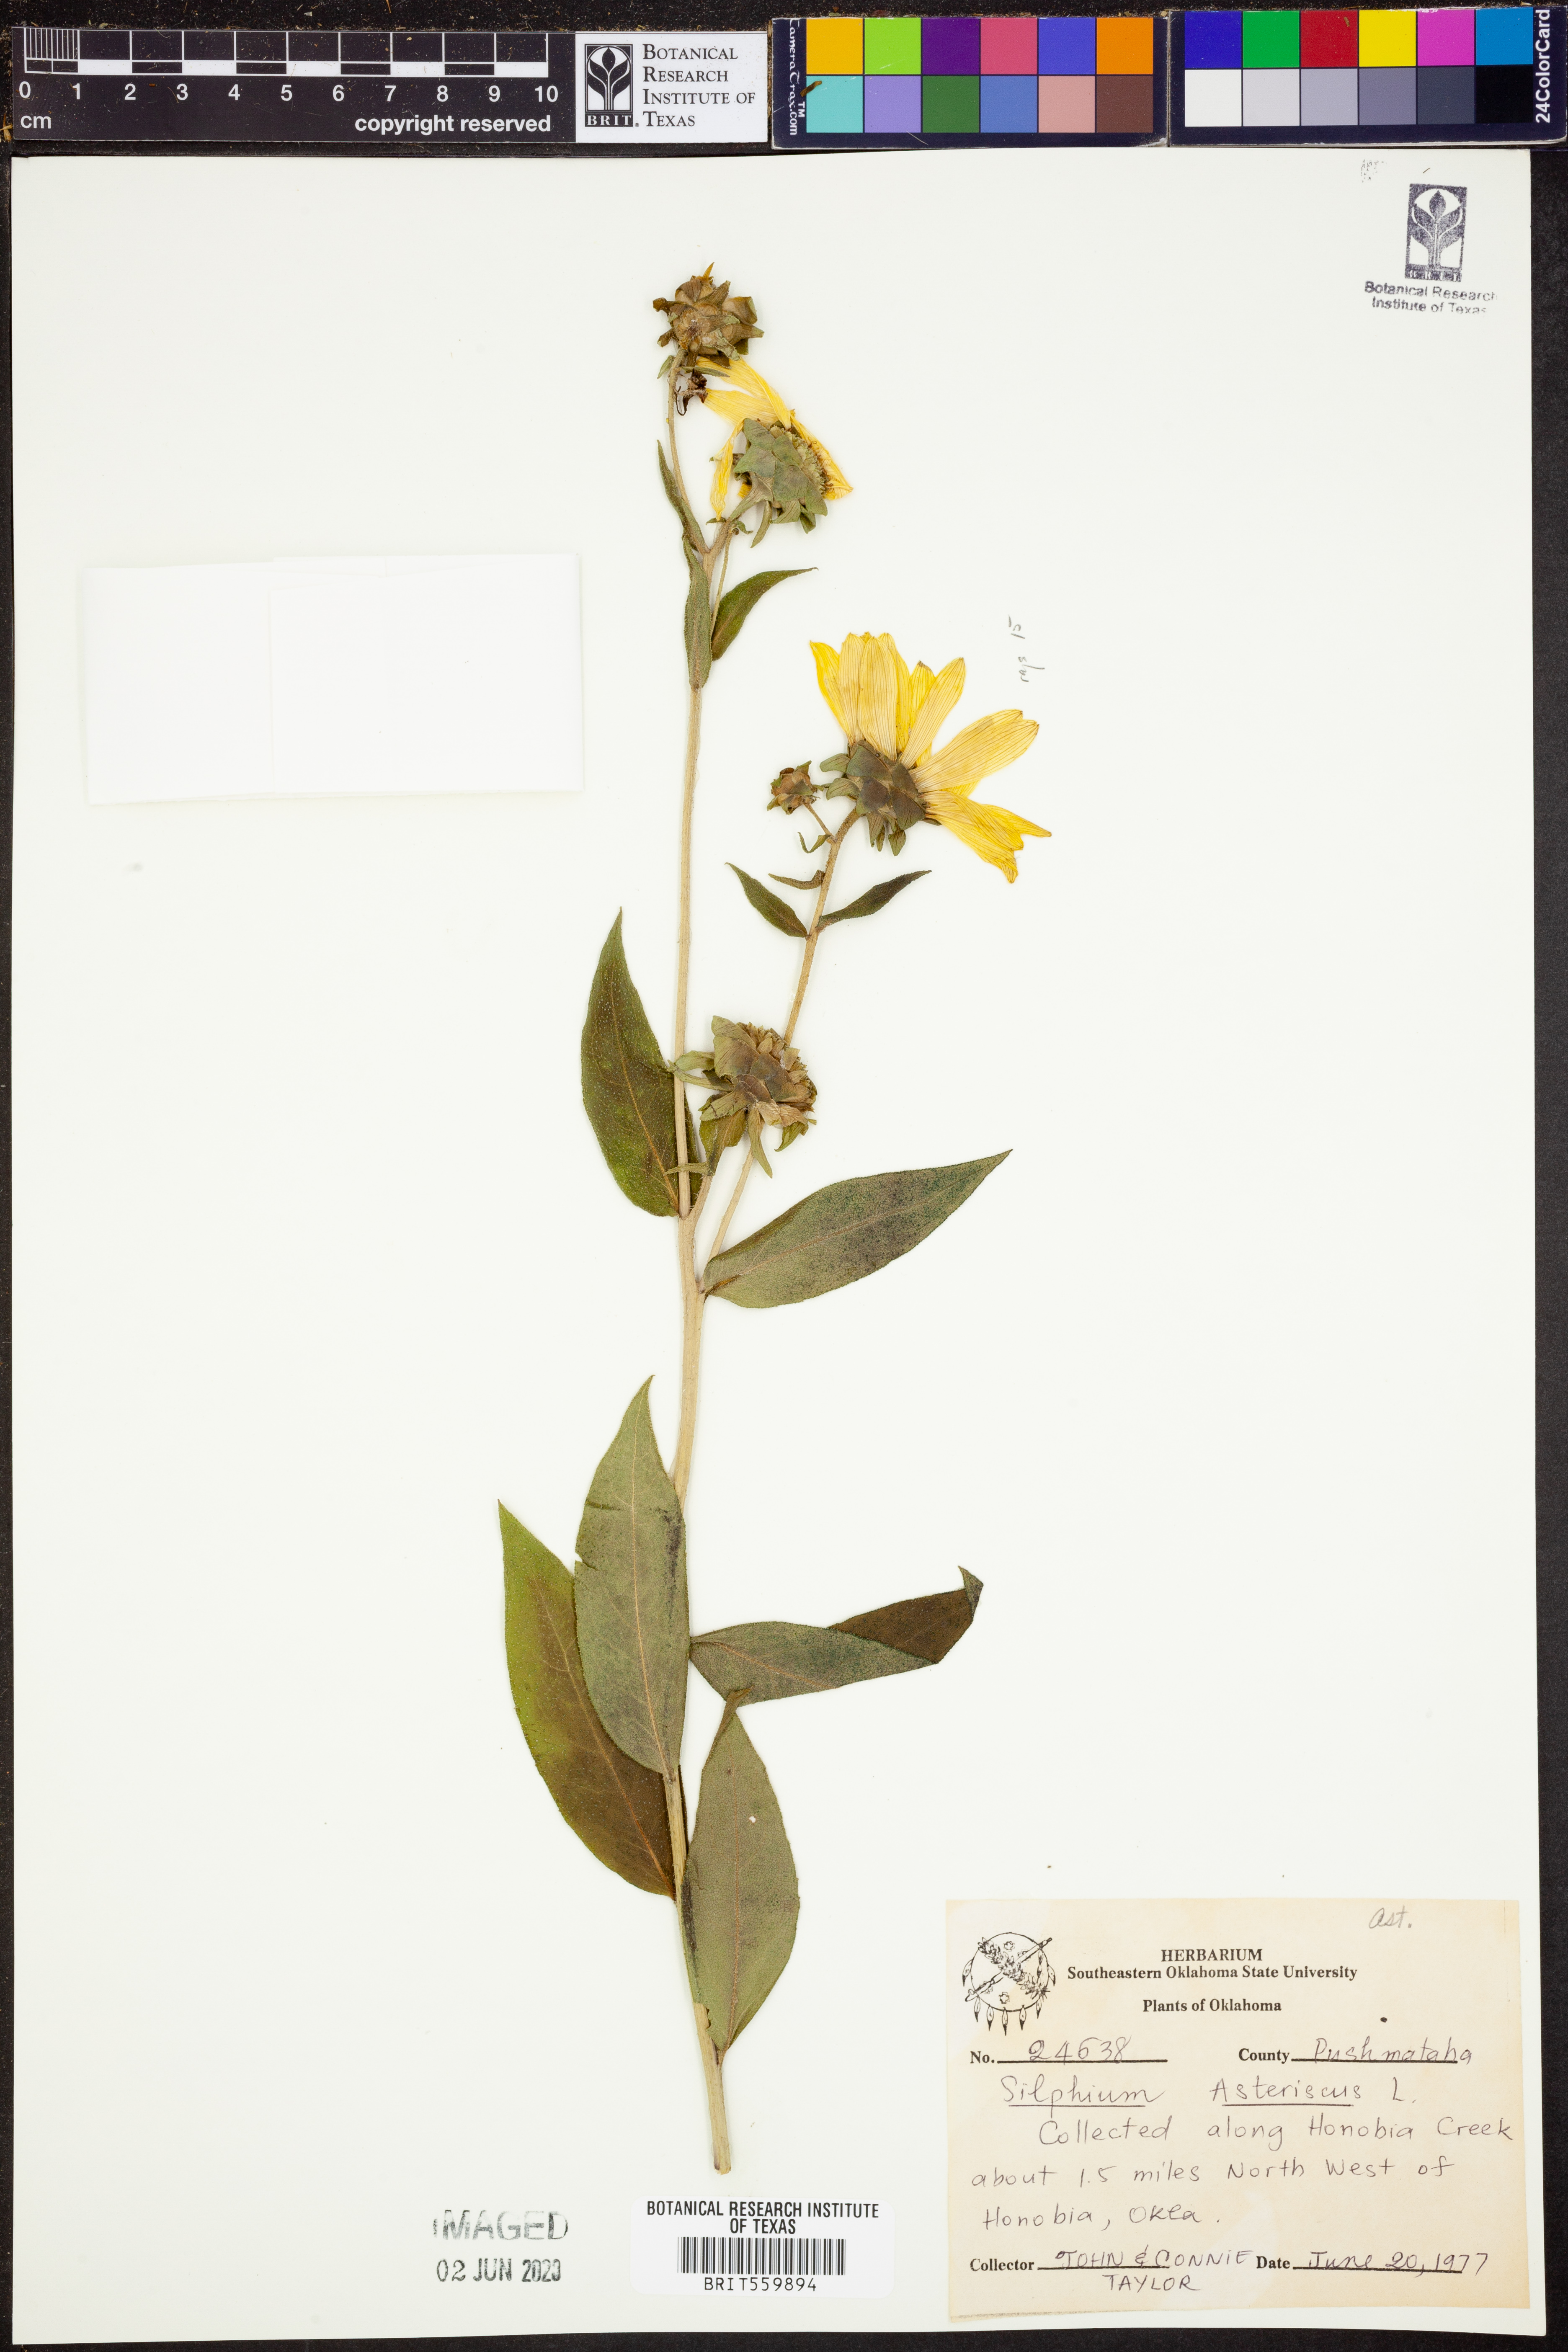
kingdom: Plantae
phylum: Tracheophyta
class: Magnoliopsida
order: Asterales
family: Asteraceae
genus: Silphium
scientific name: Silphium asteriscus
